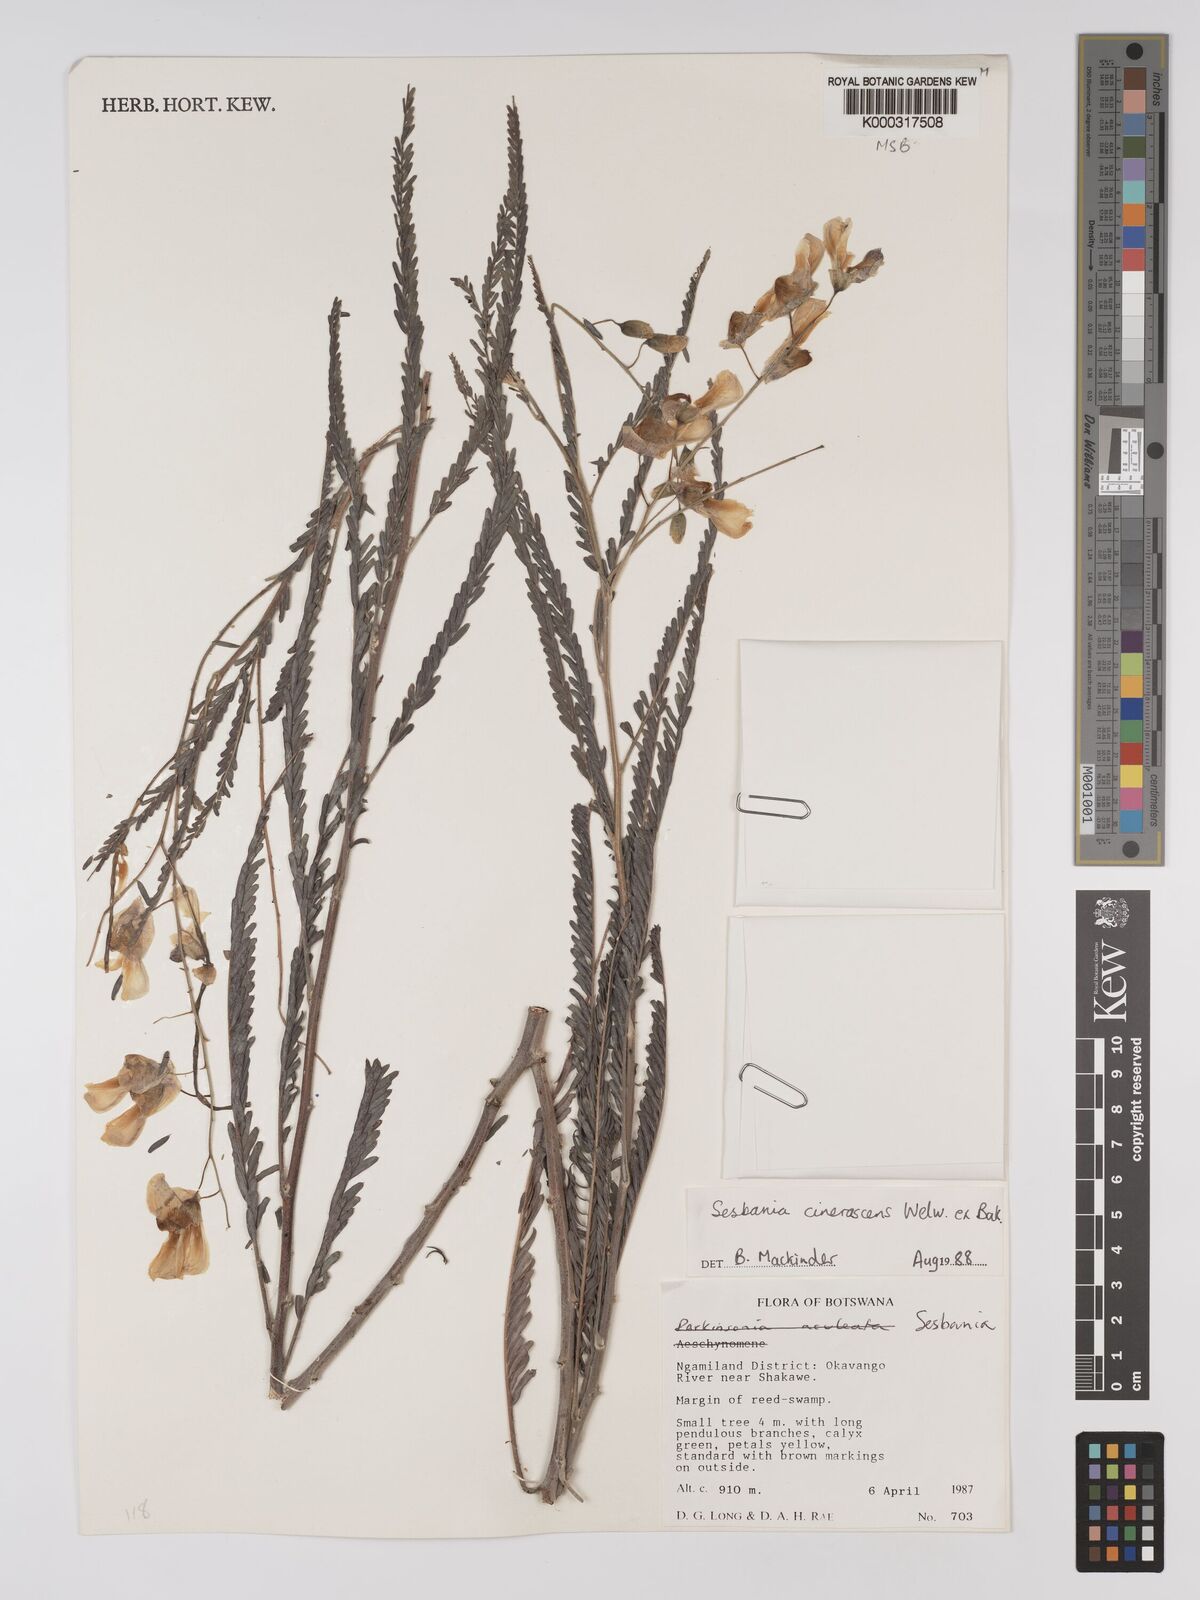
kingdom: Plantae
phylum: Tracheophyta
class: Magnoliopsida
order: Fabales
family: Fabaceae
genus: Sesbania
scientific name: Sesbania cinerascens
